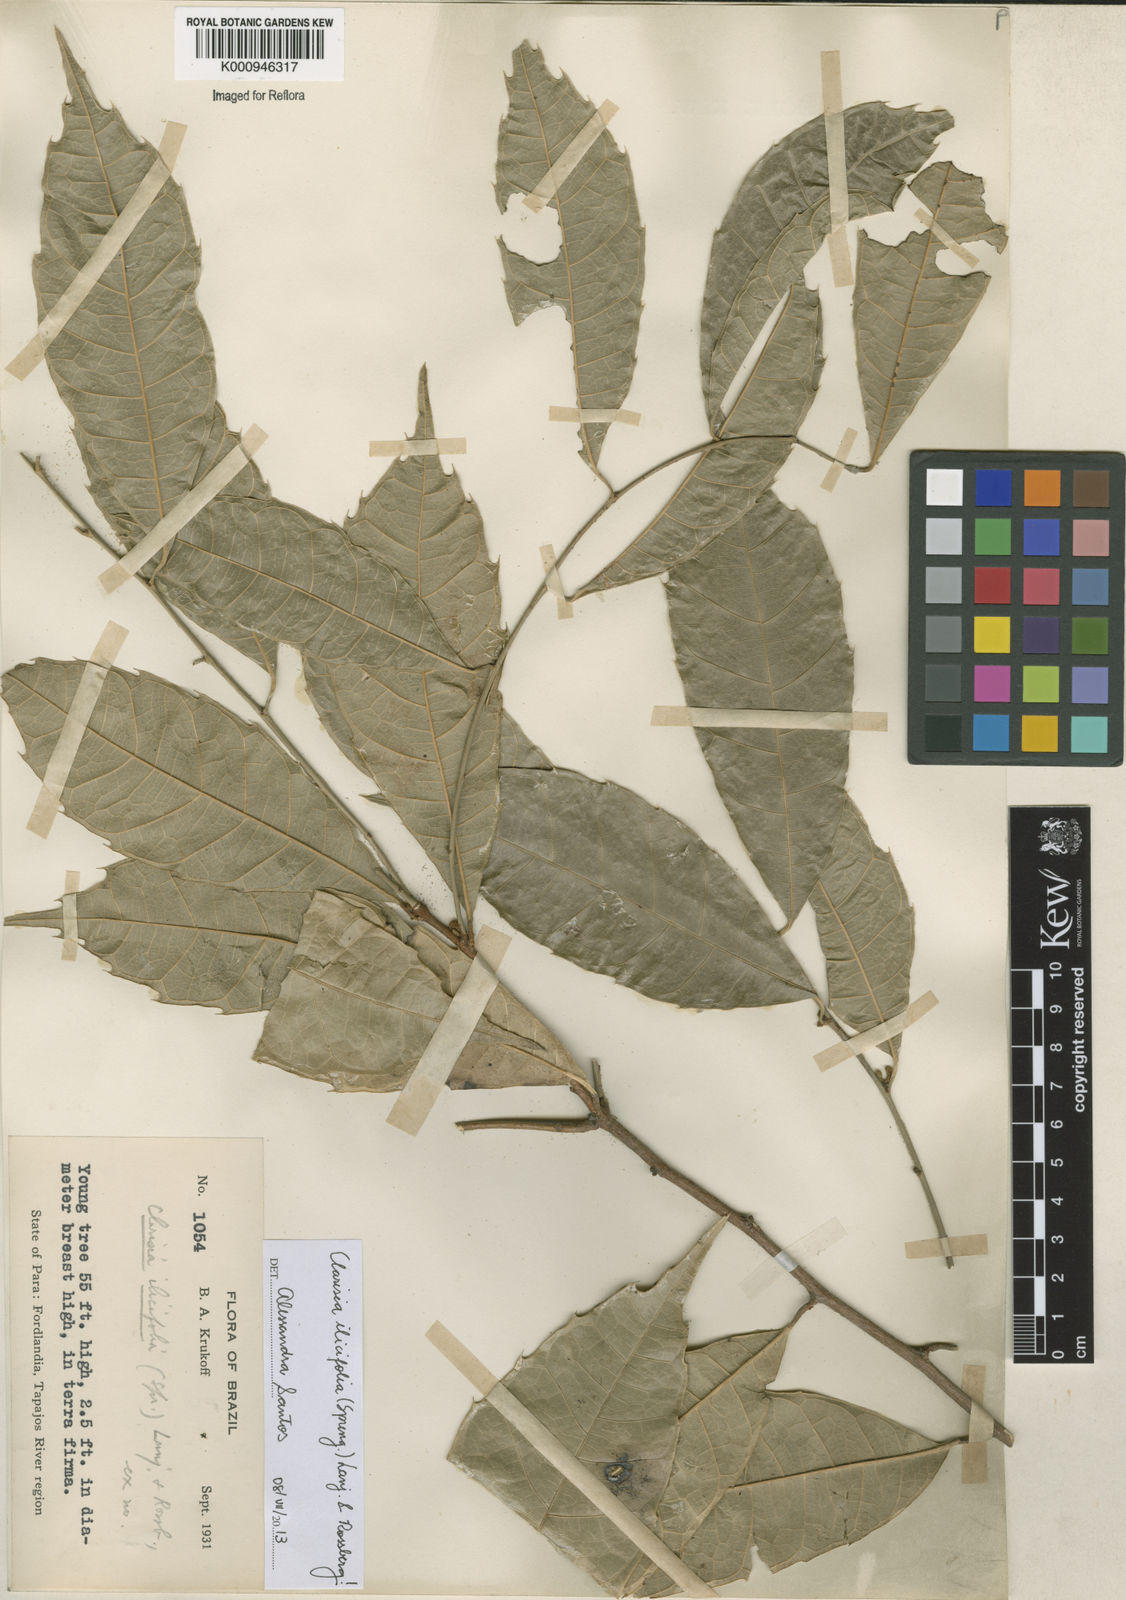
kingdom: Plantae
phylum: Tracheophyta
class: Magnoliopsida
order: Rosales
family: Moraceae
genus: Clarisia
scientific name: Clarisia ilicifolia
